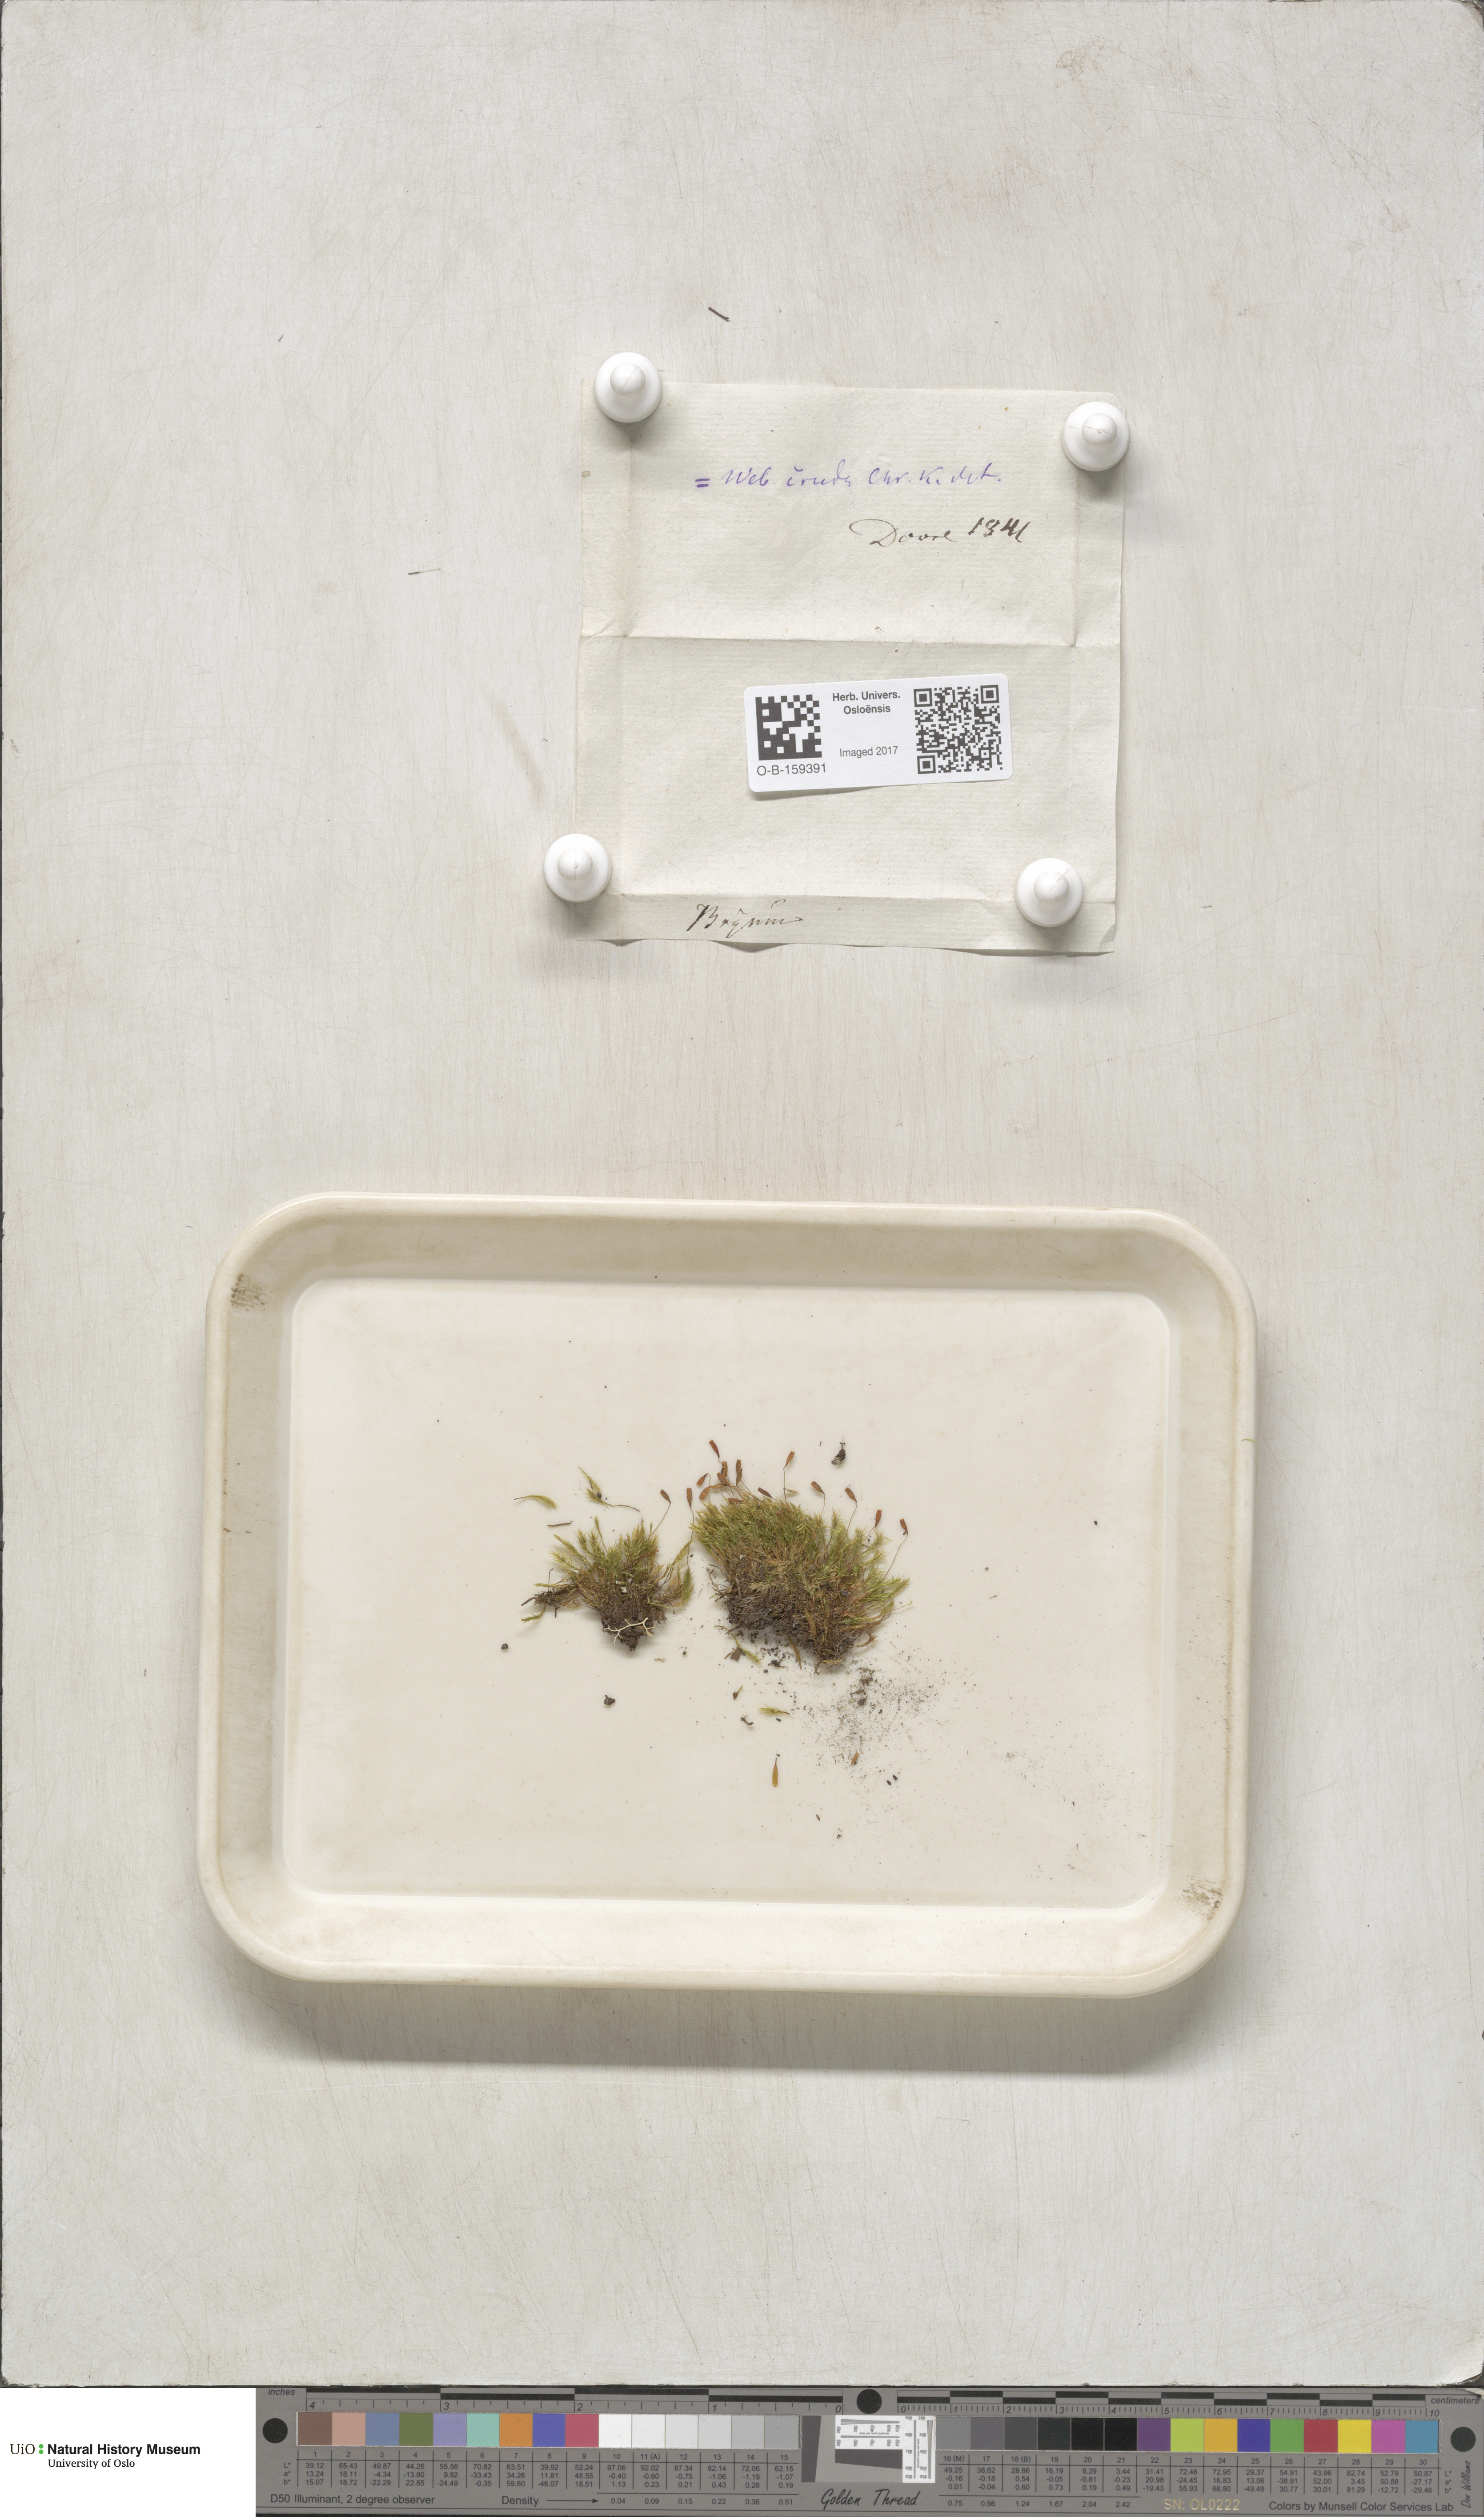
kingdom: Plantae
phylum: Bryophyta
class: Bryopsida
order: Bryales
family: Mniaceae
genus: Pohlia
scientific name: Pohlia cruda
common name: Opal nodding moss
